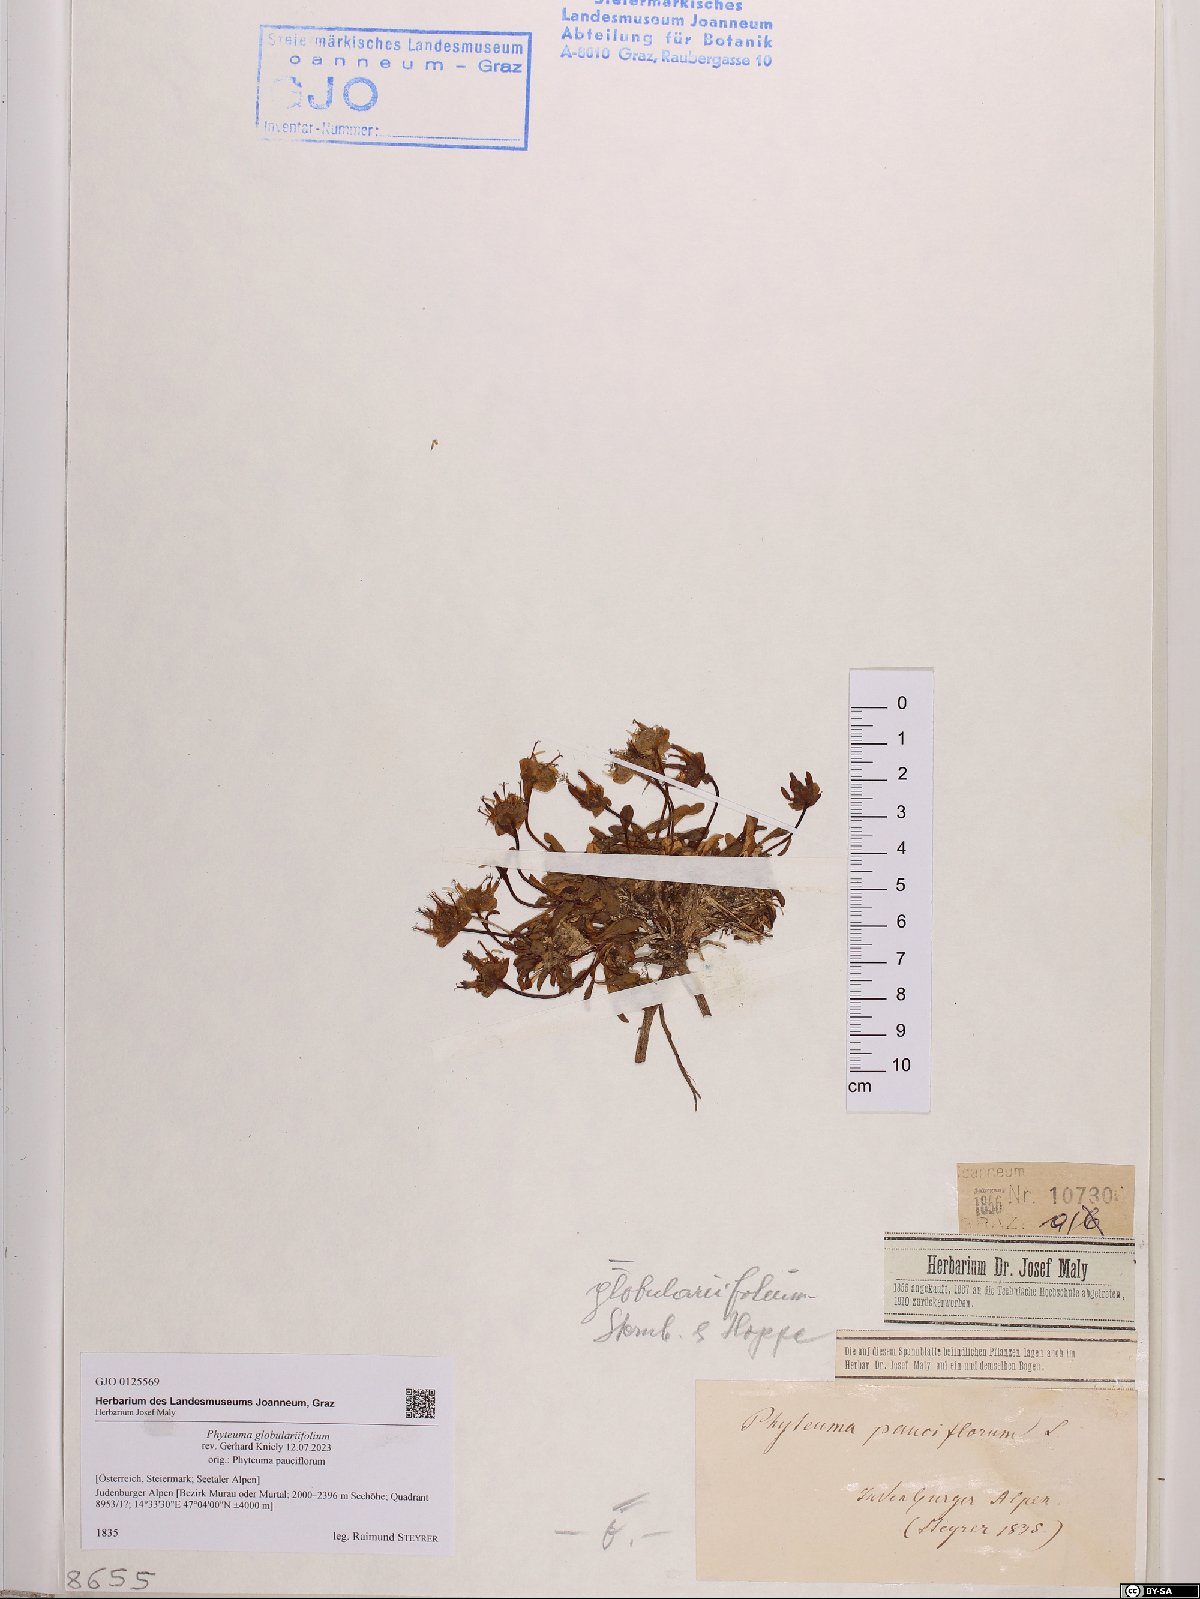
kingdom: Plantae
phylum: Tracheophyta
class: Magnoliopsida
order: Asterales
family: Campanulaceae
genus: Phyteuma
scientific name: Phyteuma globulariifolium
